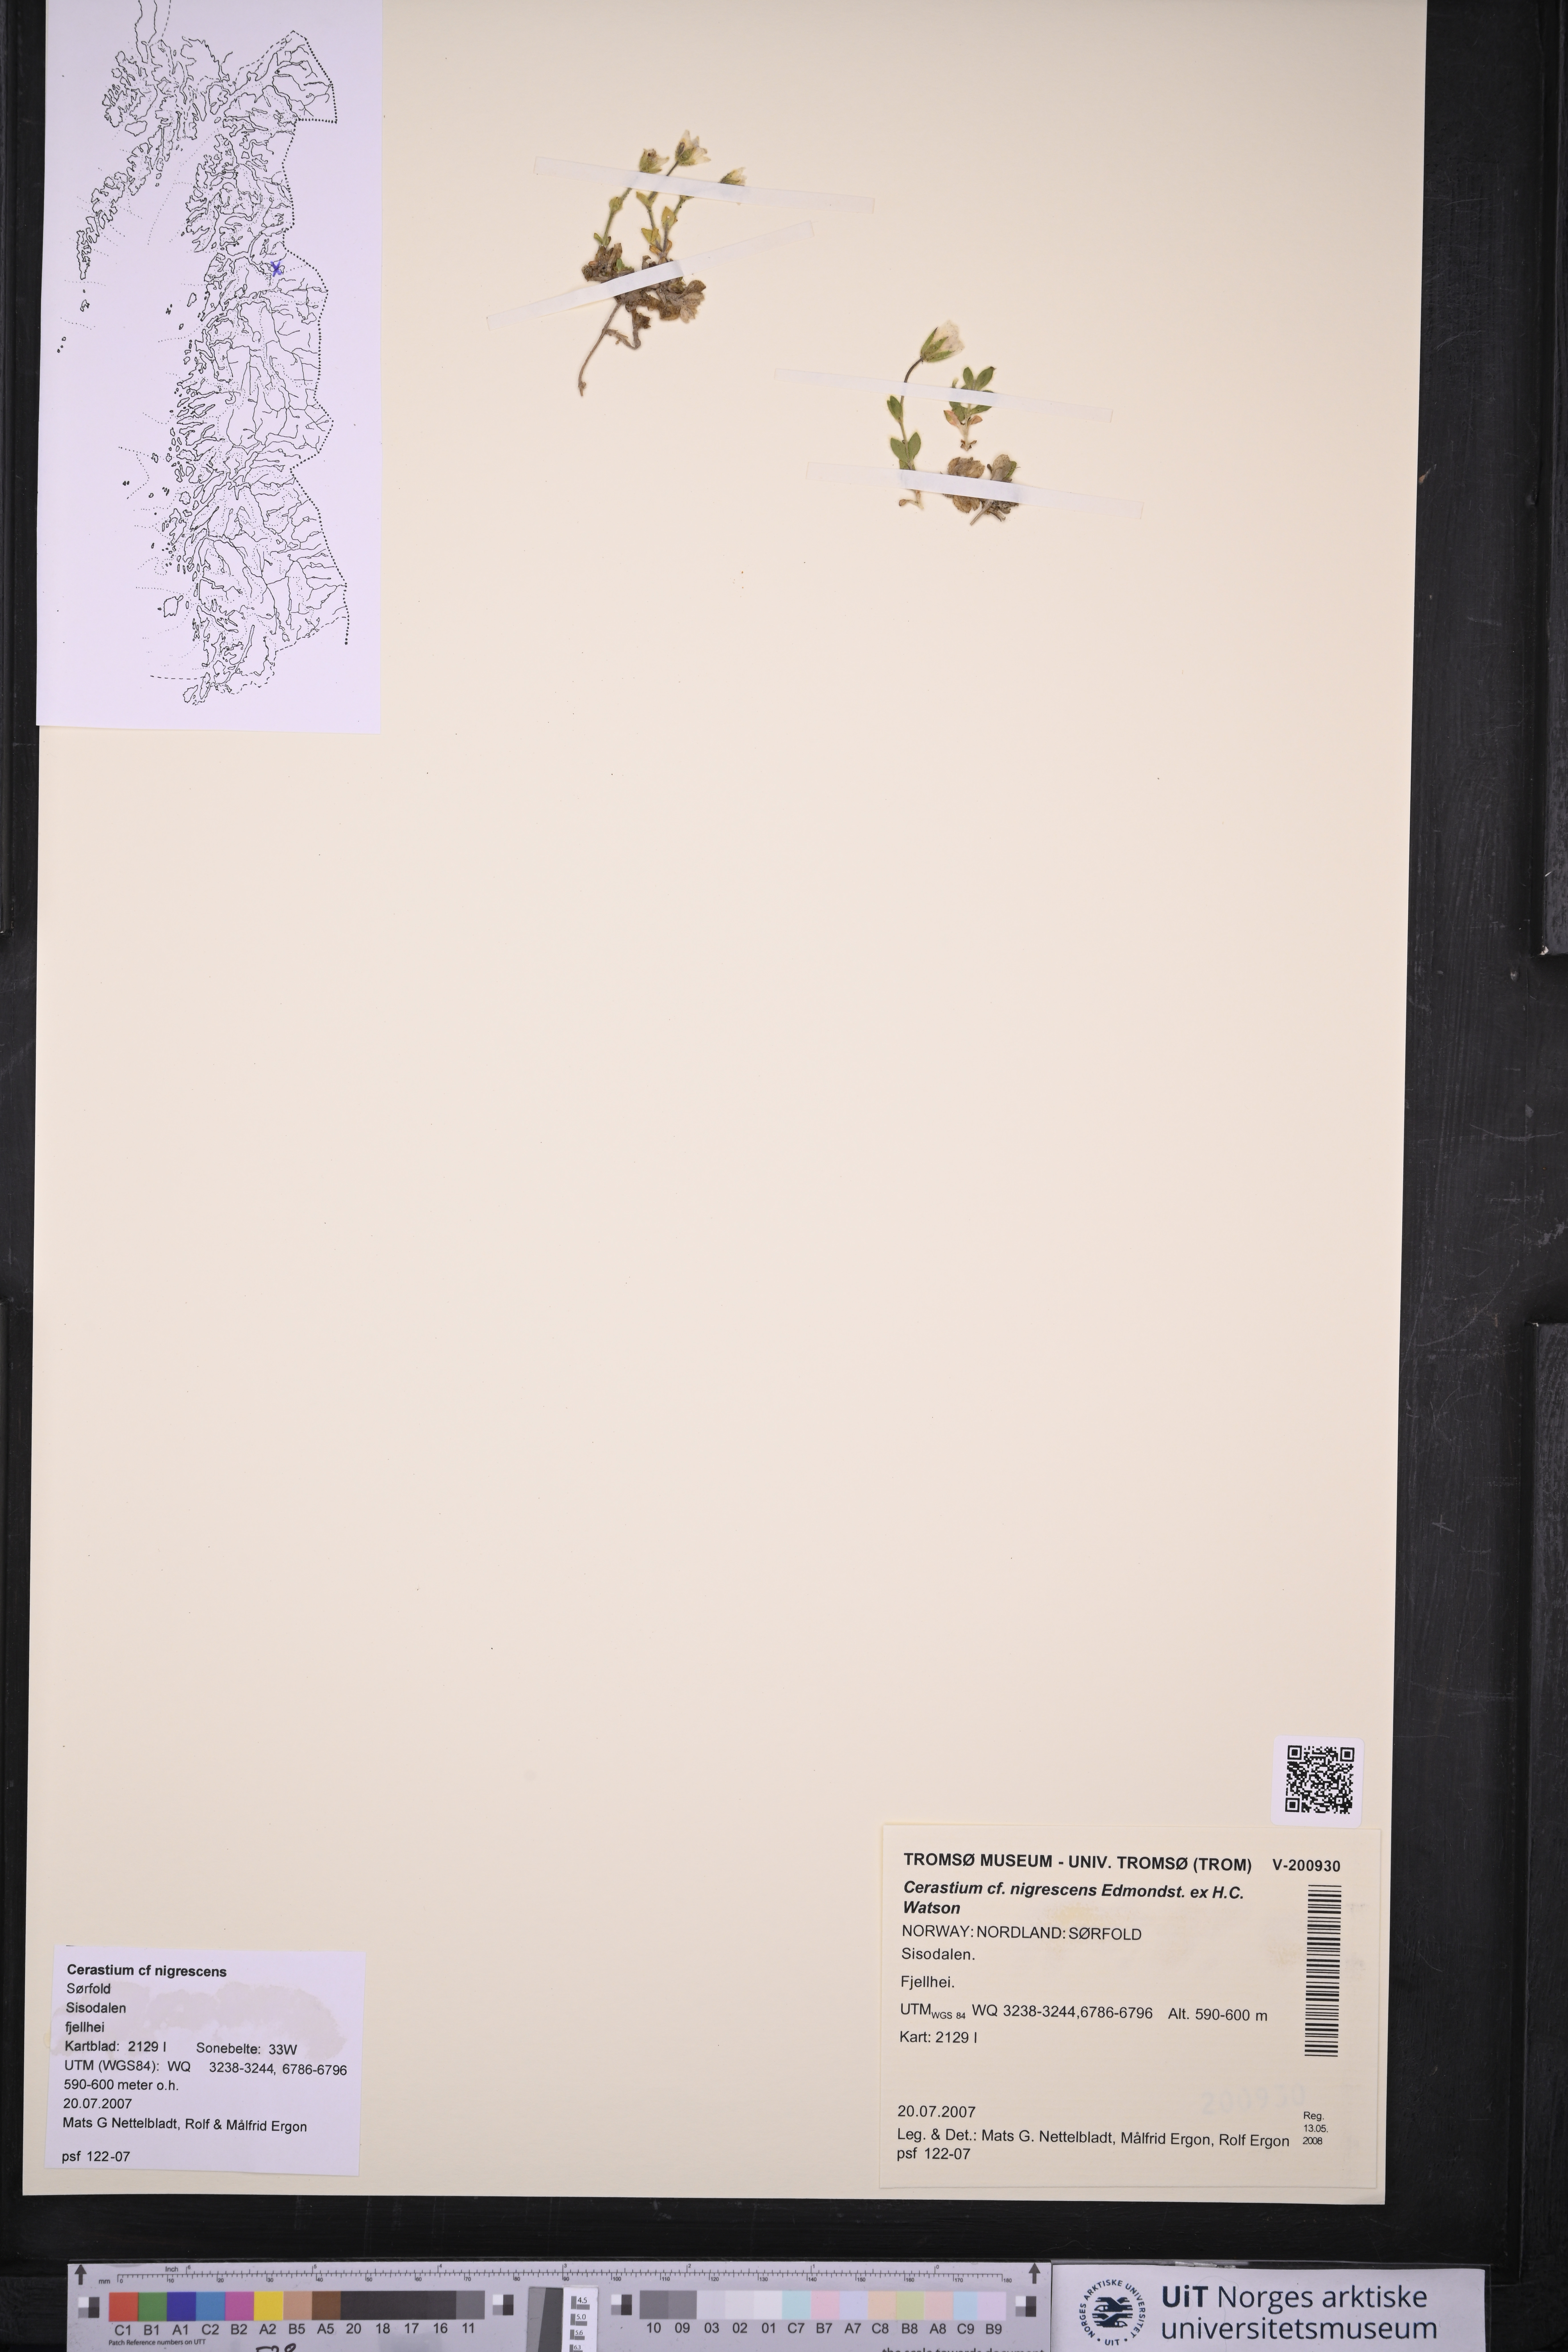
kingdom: Plantae
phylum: Tracheophyta
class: Magnoliopsida
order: Caryophyllales
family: Caryophyllaceae
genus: Cerastium
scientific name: Cerastium nigrescens
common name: Shetland mouse-ear
